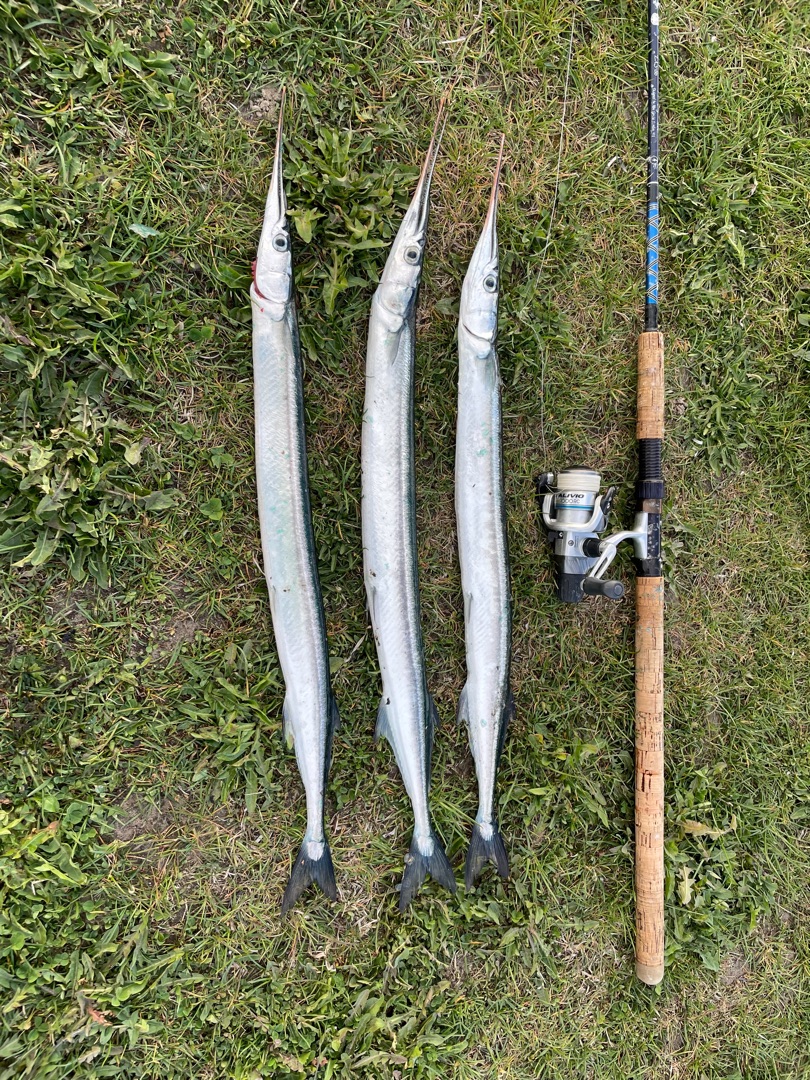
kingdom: Animalia
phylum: Chordata
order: Beloniformes
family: Belonidae
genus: Belone
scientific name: Belone belone
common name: Hornfisk
